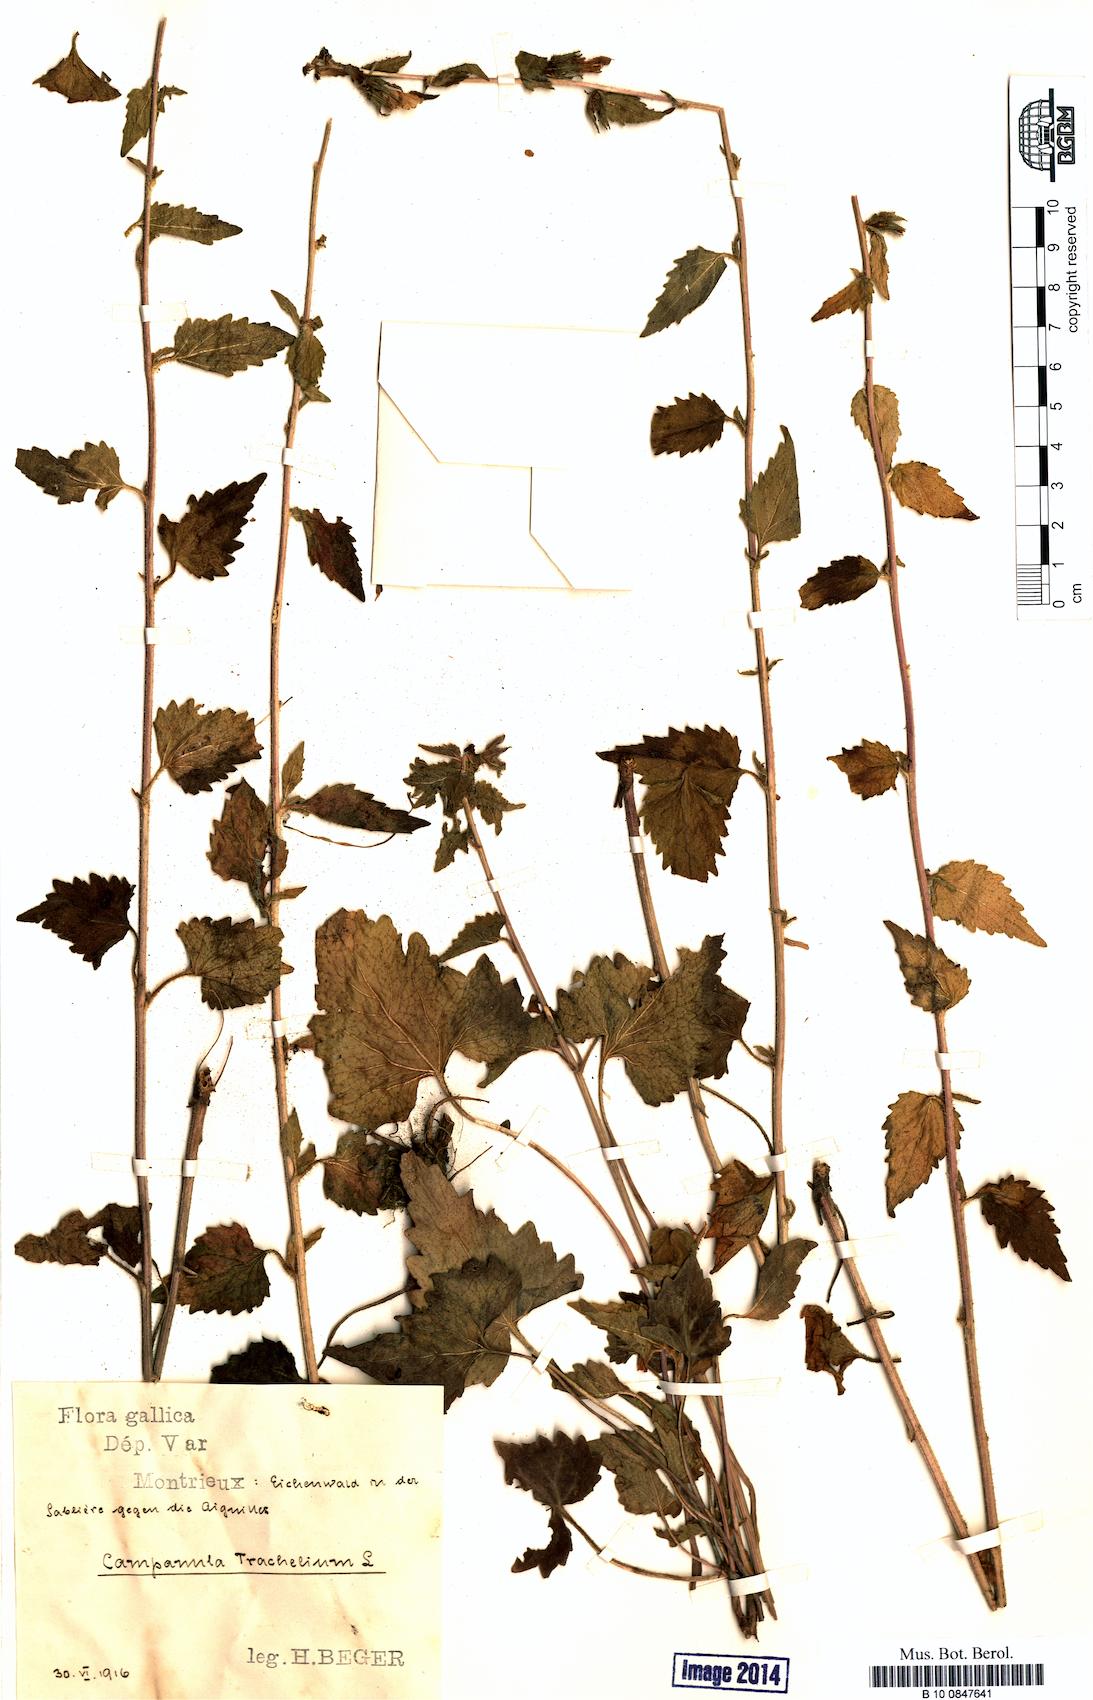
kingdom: Plantae
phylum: Tracheophyta
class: Magnoliopsida
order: Asterales
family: Campanulaceae
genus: Campanula
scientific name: Campanula trachelium
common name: Nettle-leaved bellflower
